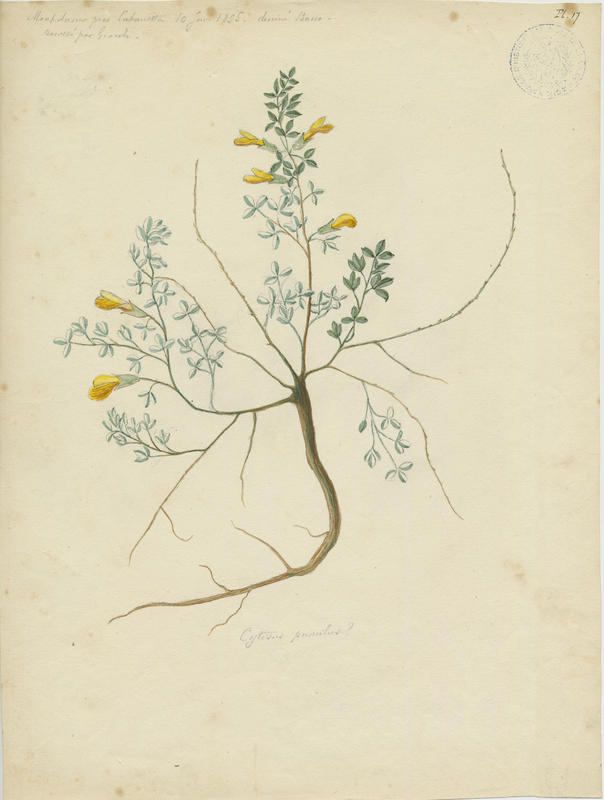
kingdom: Plantae
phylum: Tracheophyta
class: Magnoliopsida
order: Fabales
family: Fabaceae
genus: Chamaecytisus
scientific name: Chamaecytisus hirsutus
